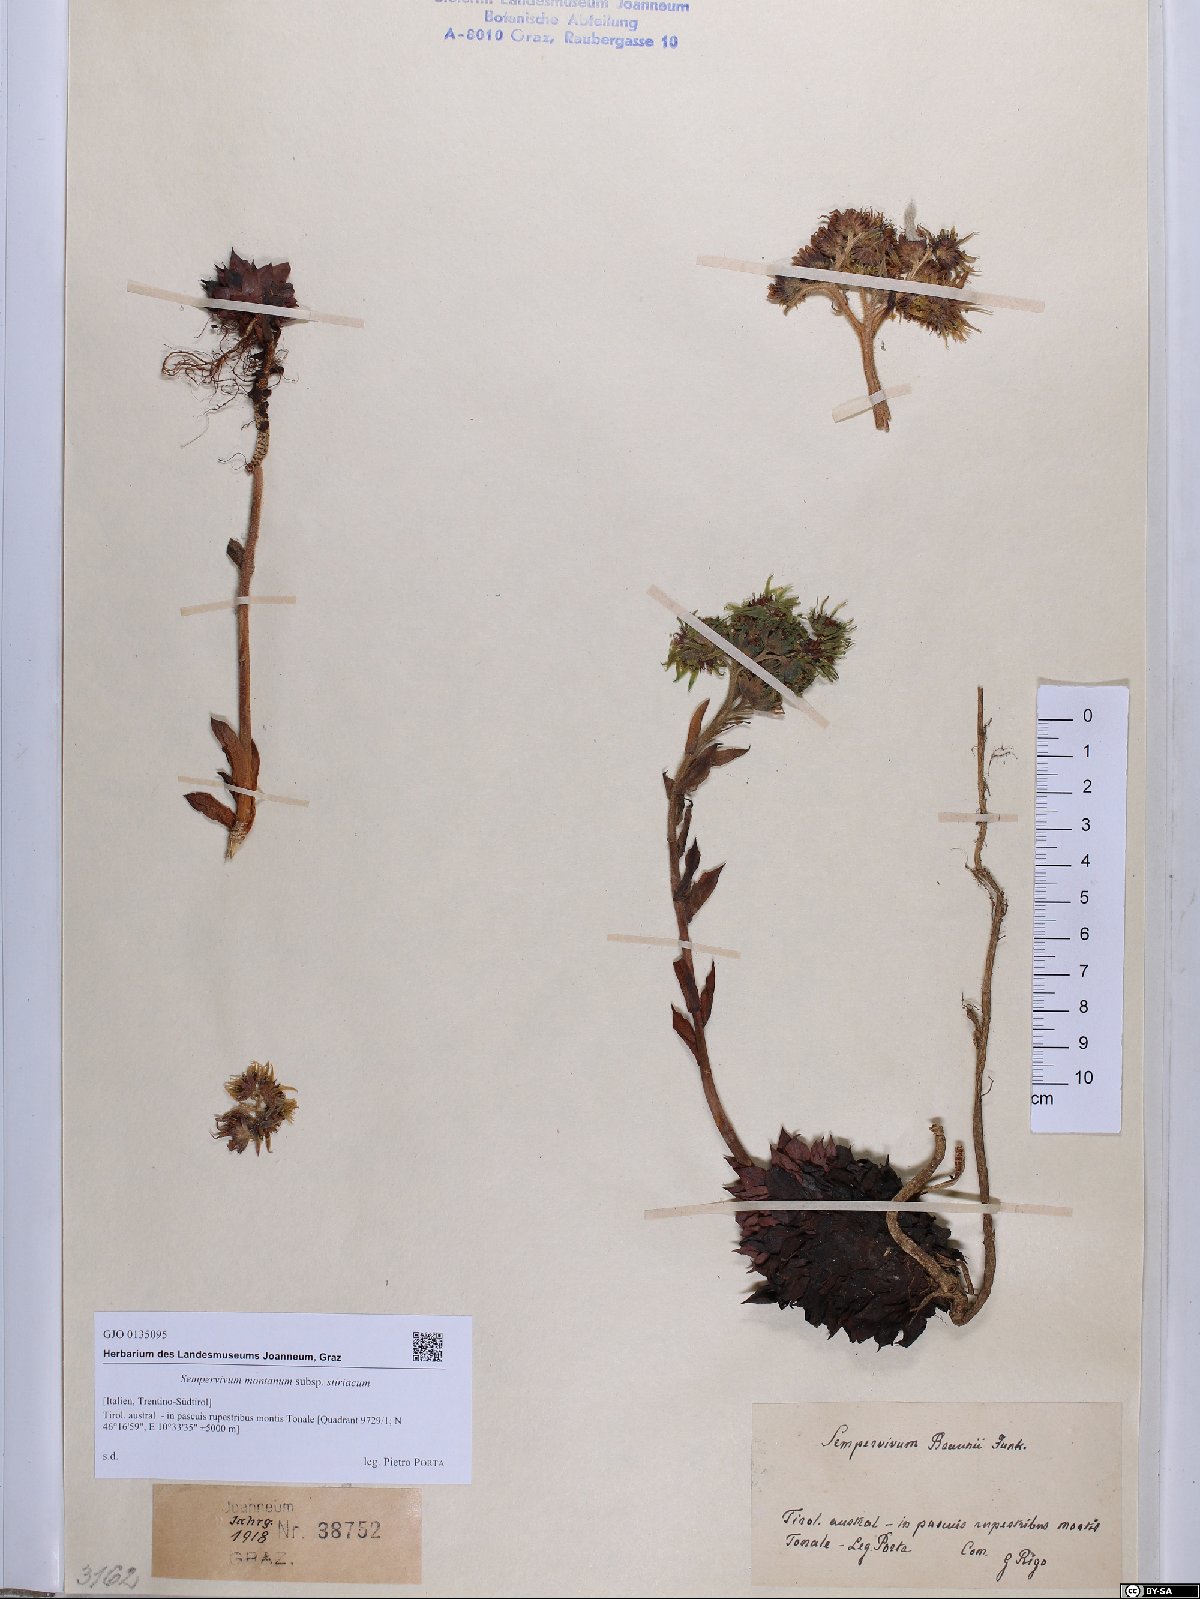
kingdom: Plantae
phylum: Tracheophyta
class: Magnoliopsida
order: Saxifragales
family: Crassulaceae
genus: Sempervivum
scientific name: Sempervivum montanum
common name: Mountain house-leek
